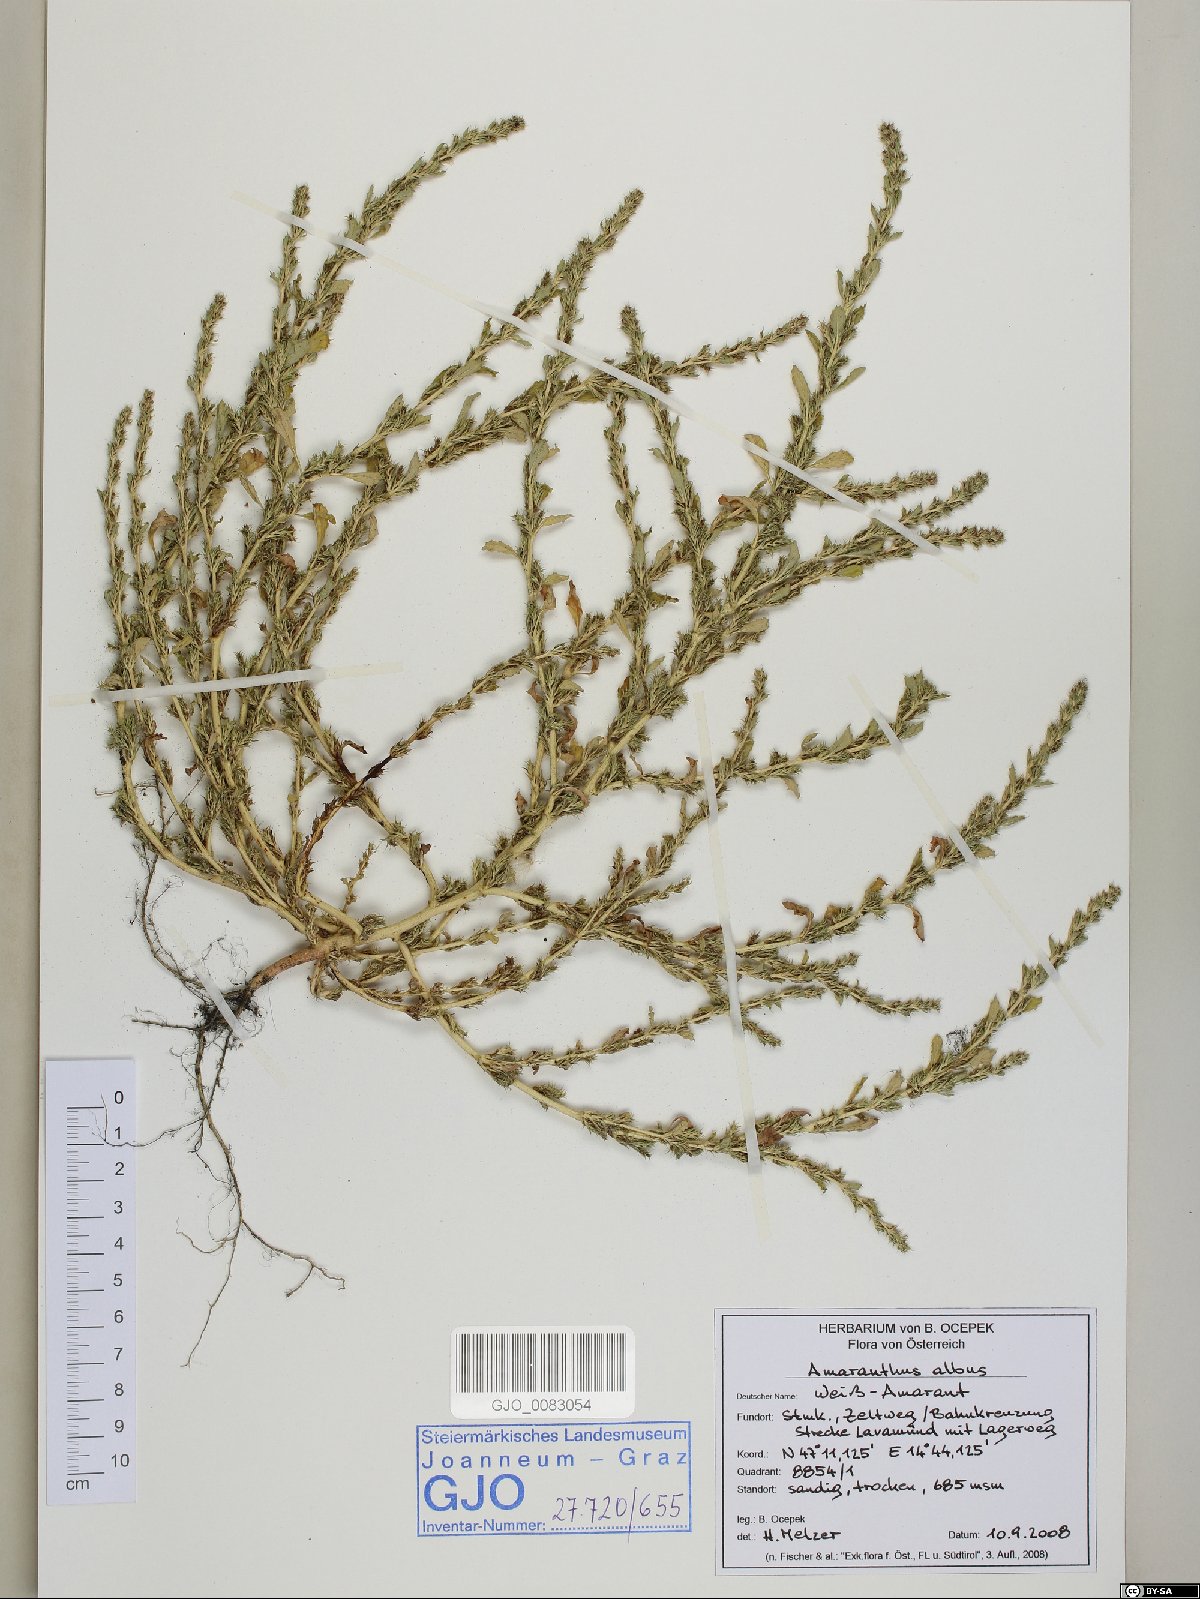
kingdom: Plantae
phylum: Tracheophyta
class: Magnoliopsida
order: Caryophyllales
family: Amaranthaceae
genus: Amaranthus
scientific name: Amaranthus albus
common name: White pigweed
